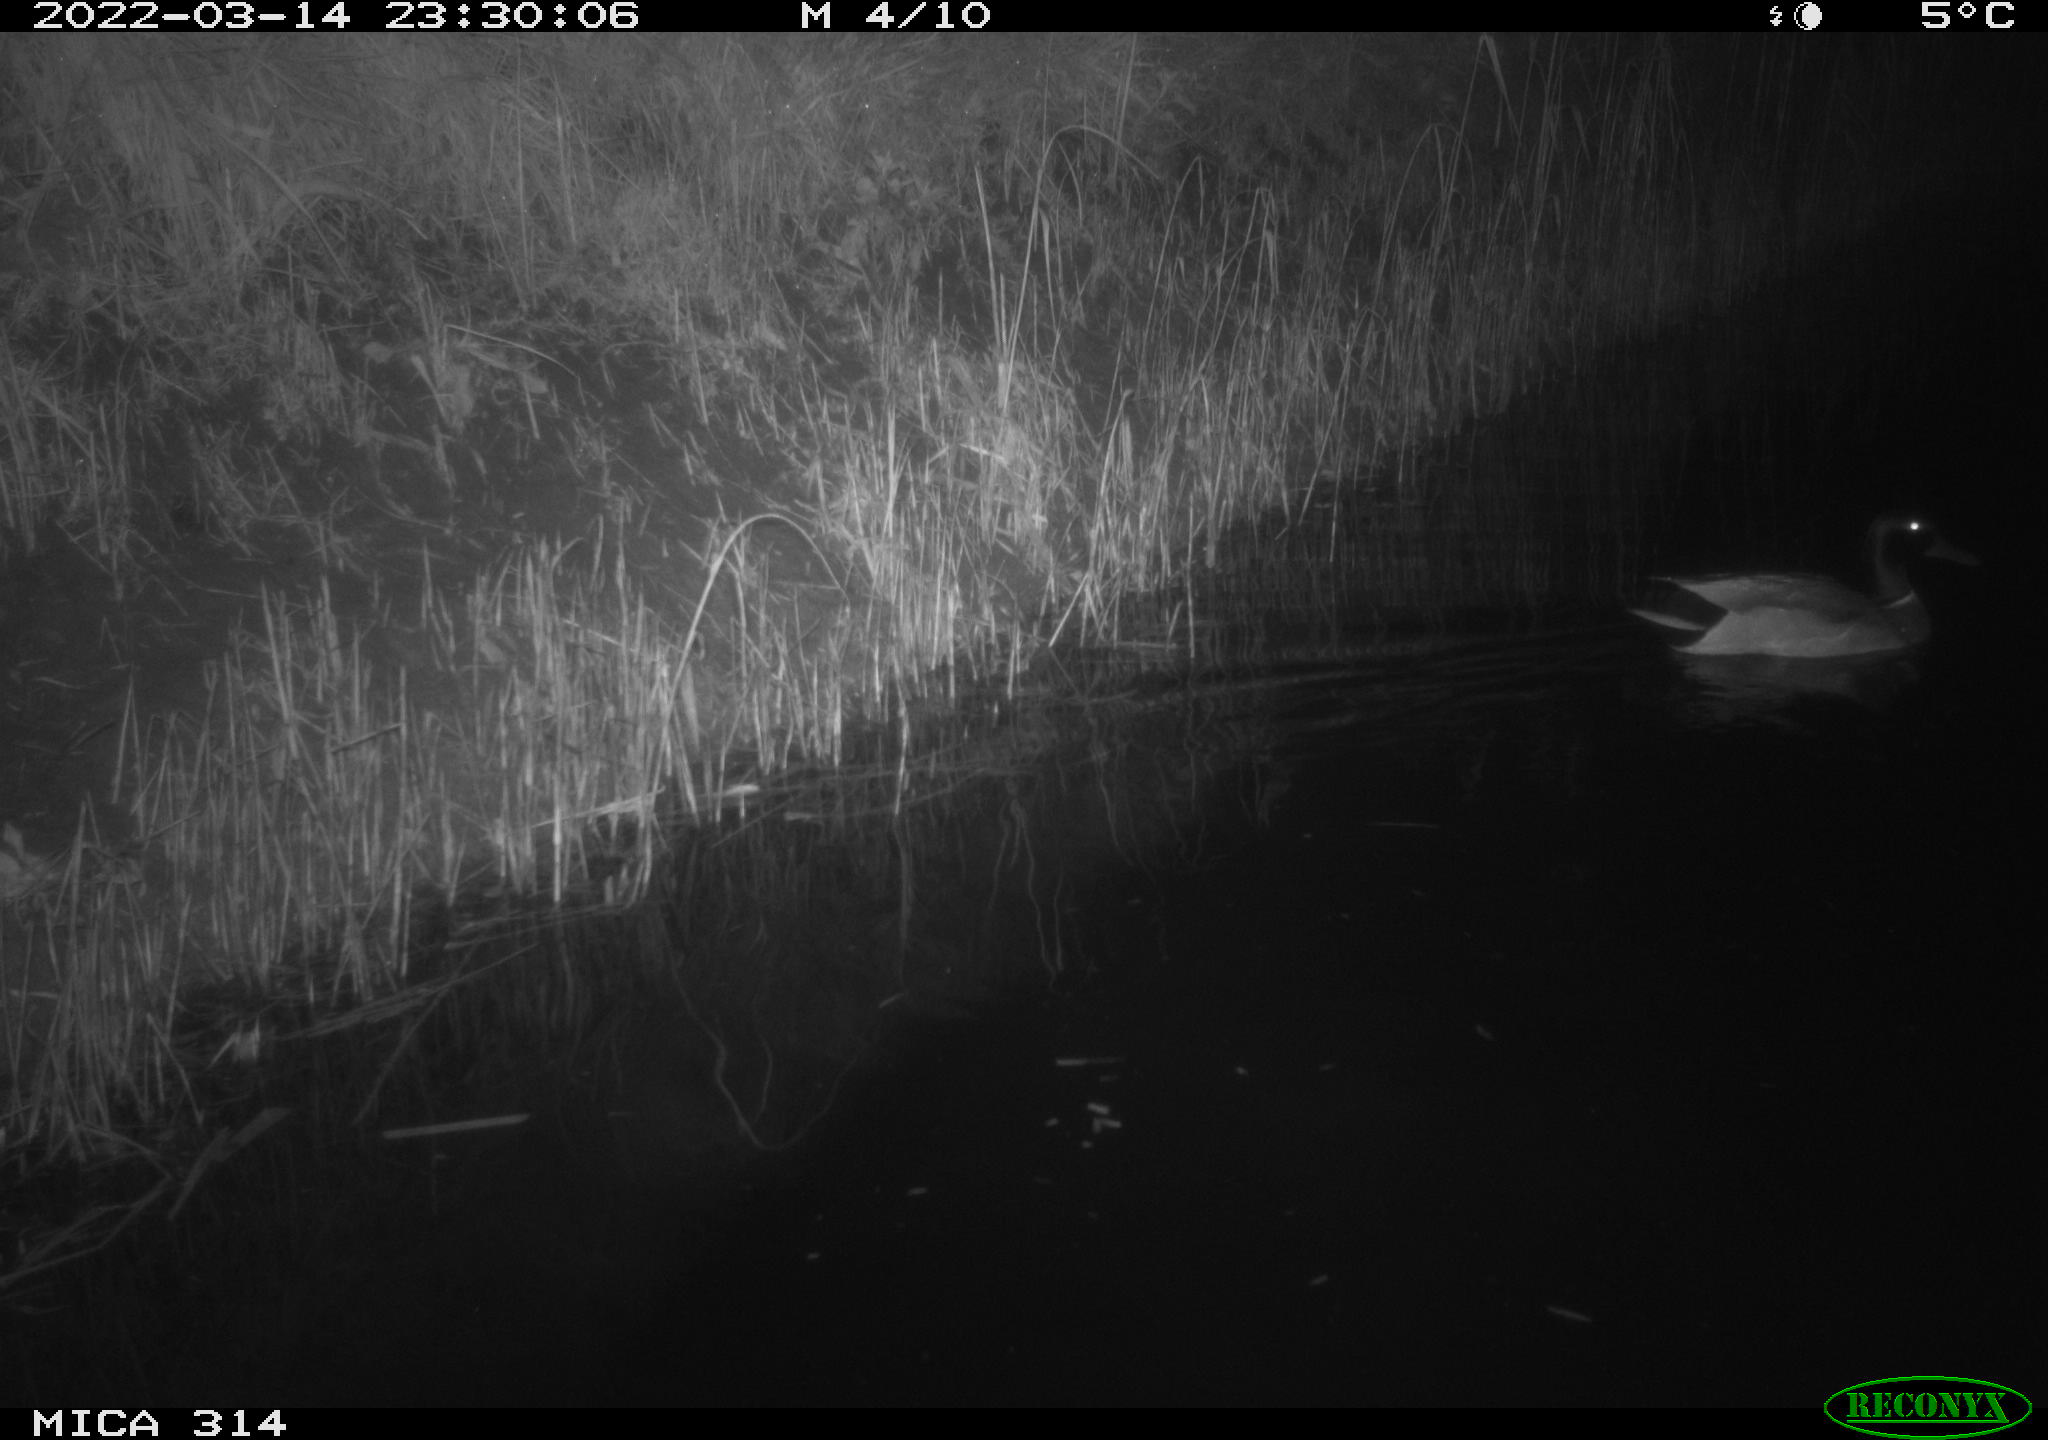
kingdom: Animalia
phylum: Chordata
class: Aves
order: Anseriformes
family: Anatidae
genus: Anas
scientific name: Anas platyrhynchos
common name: Mallard
